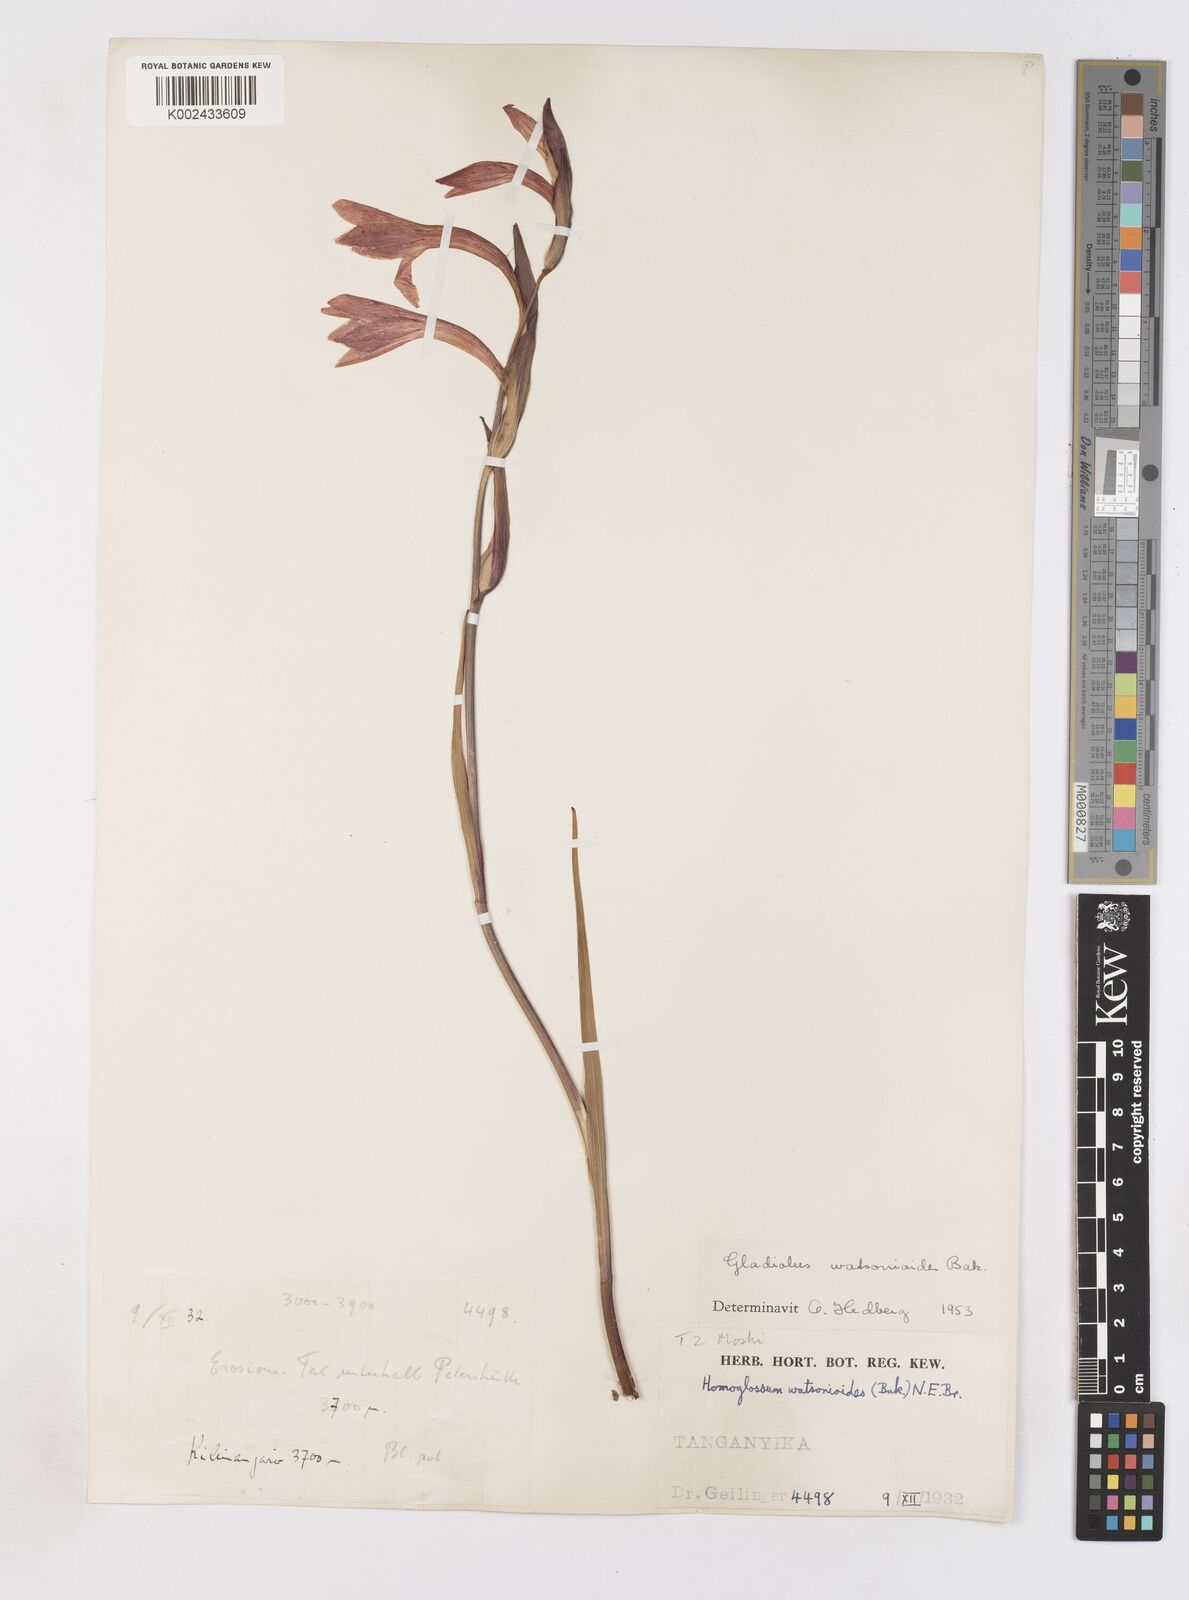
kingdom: Plantae
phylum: Tracheophyta
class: Liliopsida
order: Asparagales
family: Iridaceae
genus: Gladiolus
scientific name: Gladiolus watsonioides
